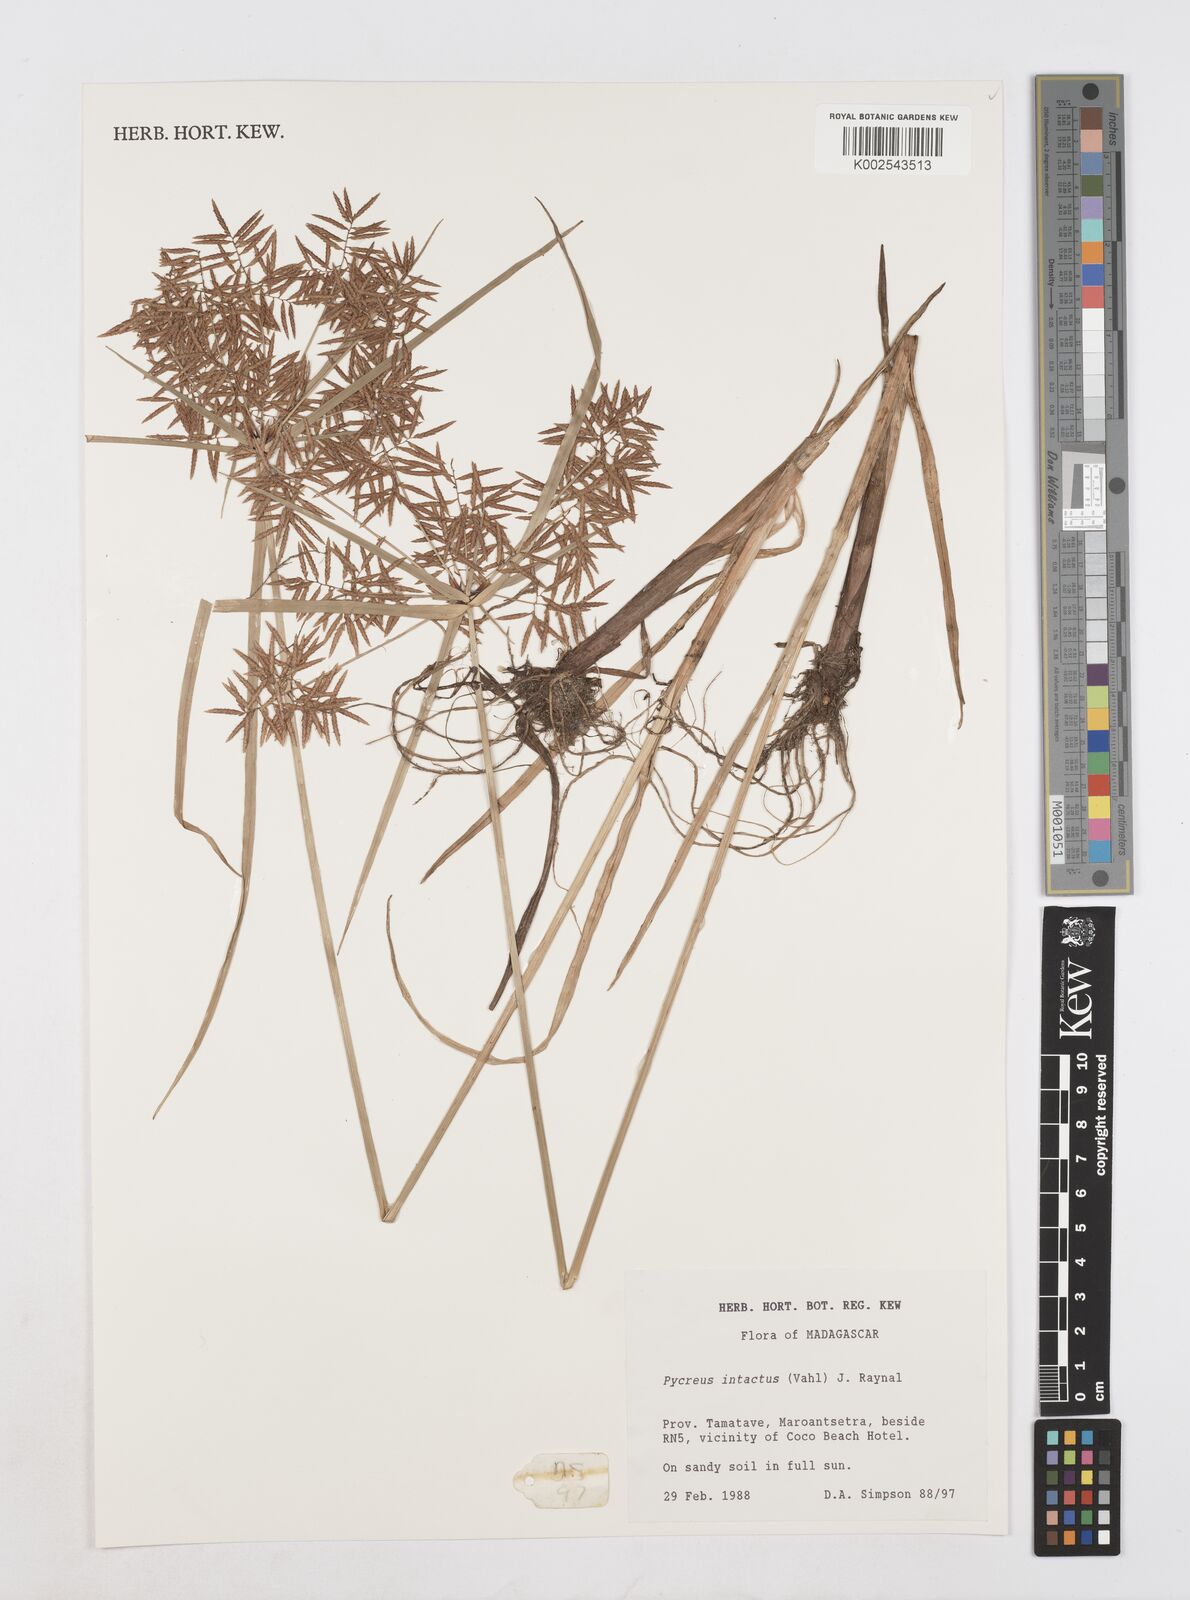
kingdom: Plantae
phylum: Tracheophyta
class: Liliopsida
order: Poales
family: Cyperaceae
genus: Cyperus
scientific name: Cyperus intactus
